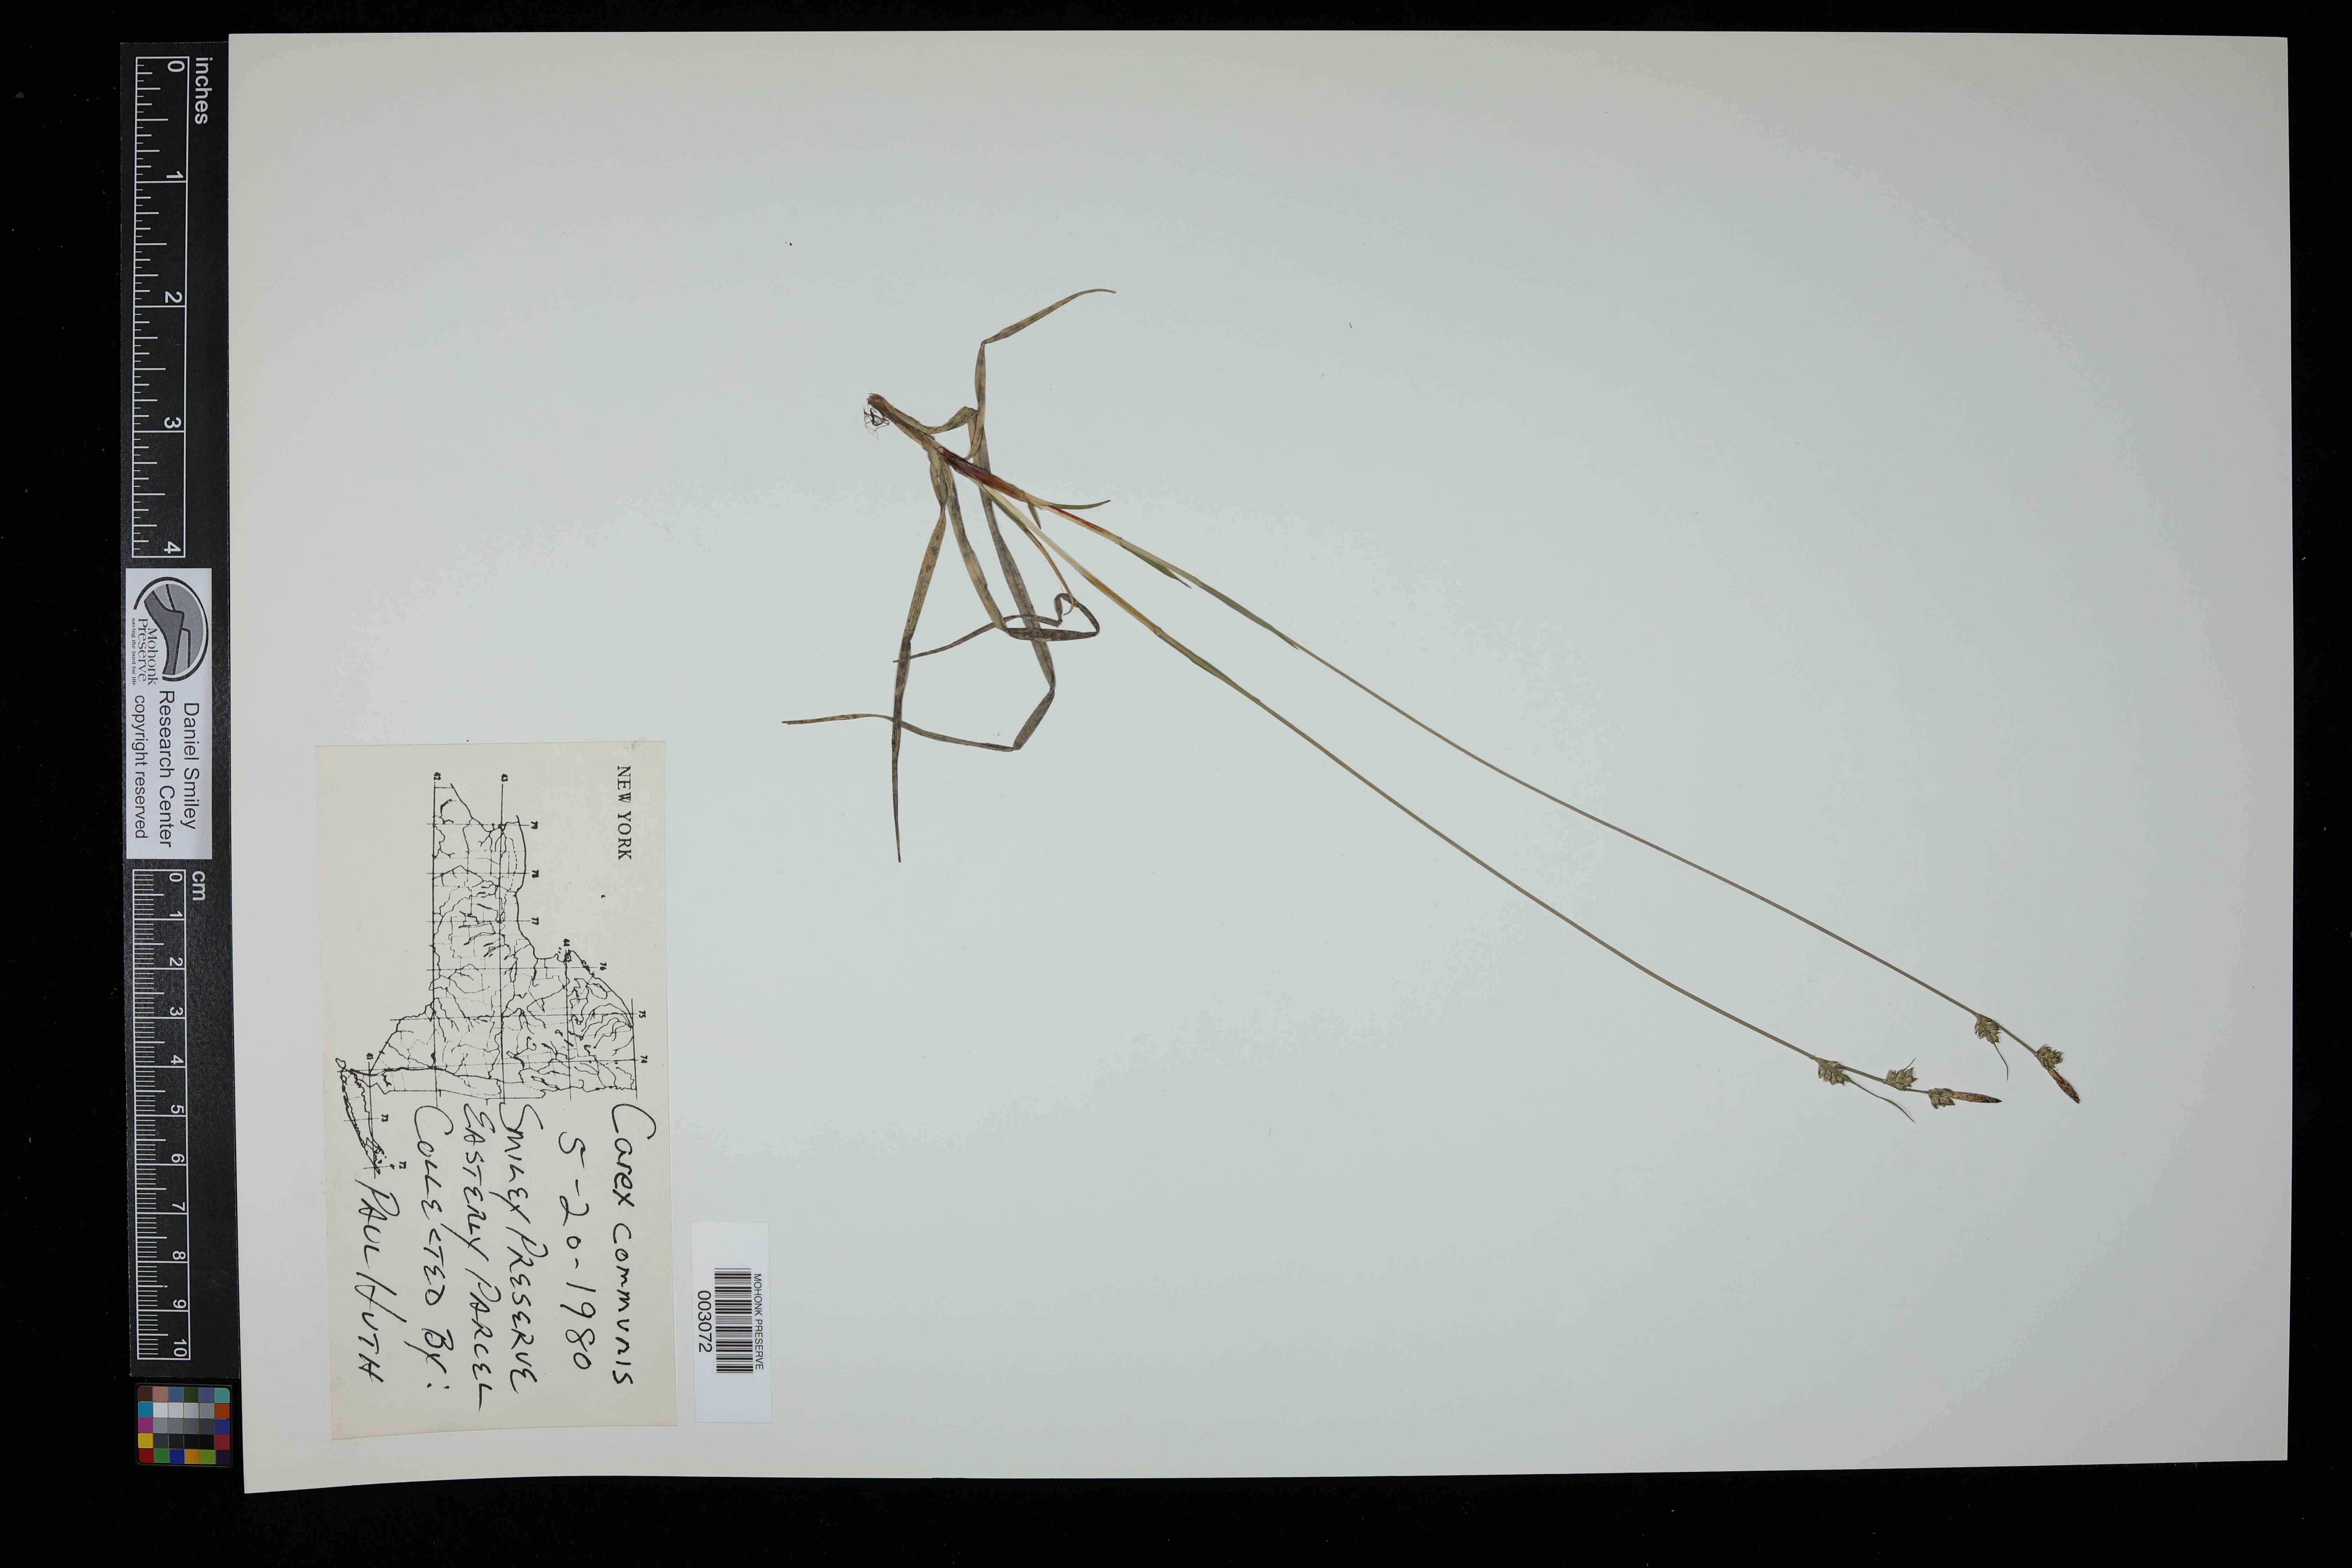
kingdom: Plantae
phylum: Tracheophyta
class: Liliopsida
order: Poales
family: Cyperaceae
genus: Carex
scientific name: Carex communis
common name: Colonial oak sedge
